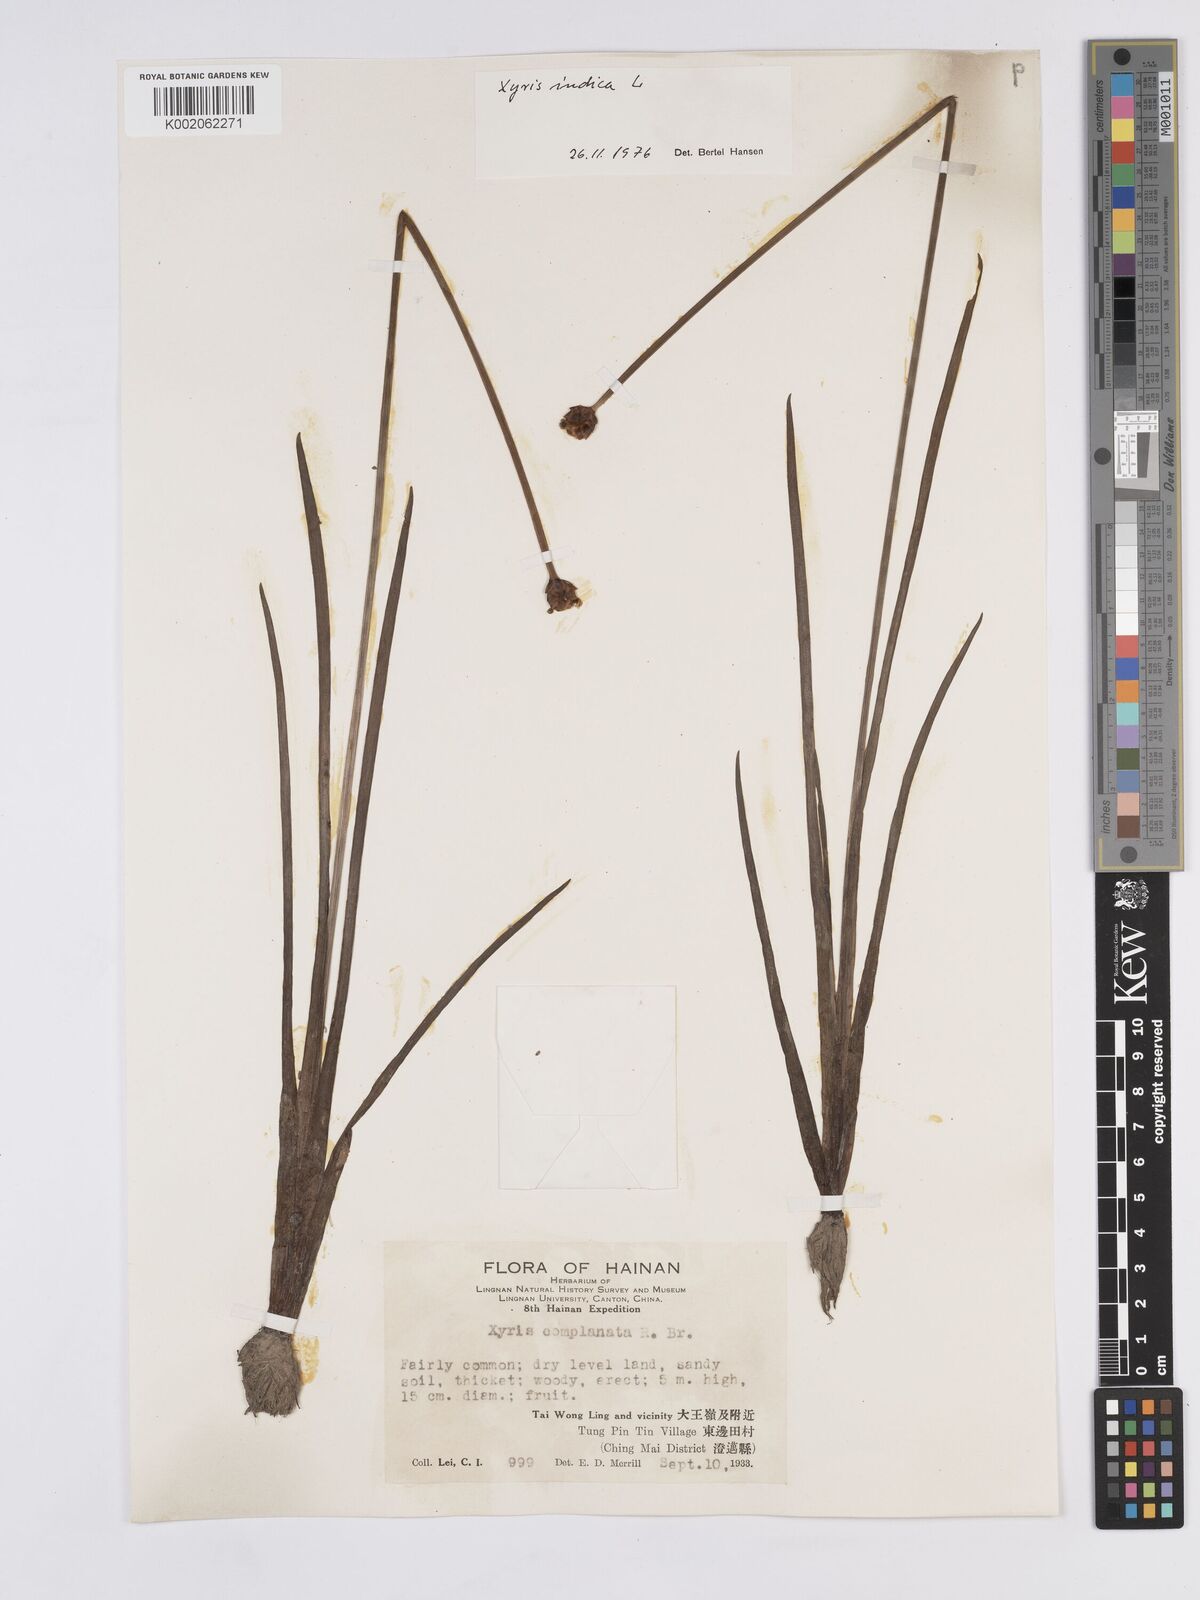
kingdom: Plantae
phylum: Tracheophyta
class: Liliopsida
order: Poales
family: Xyridaceae
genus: Xyris
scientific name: Xyris indica
